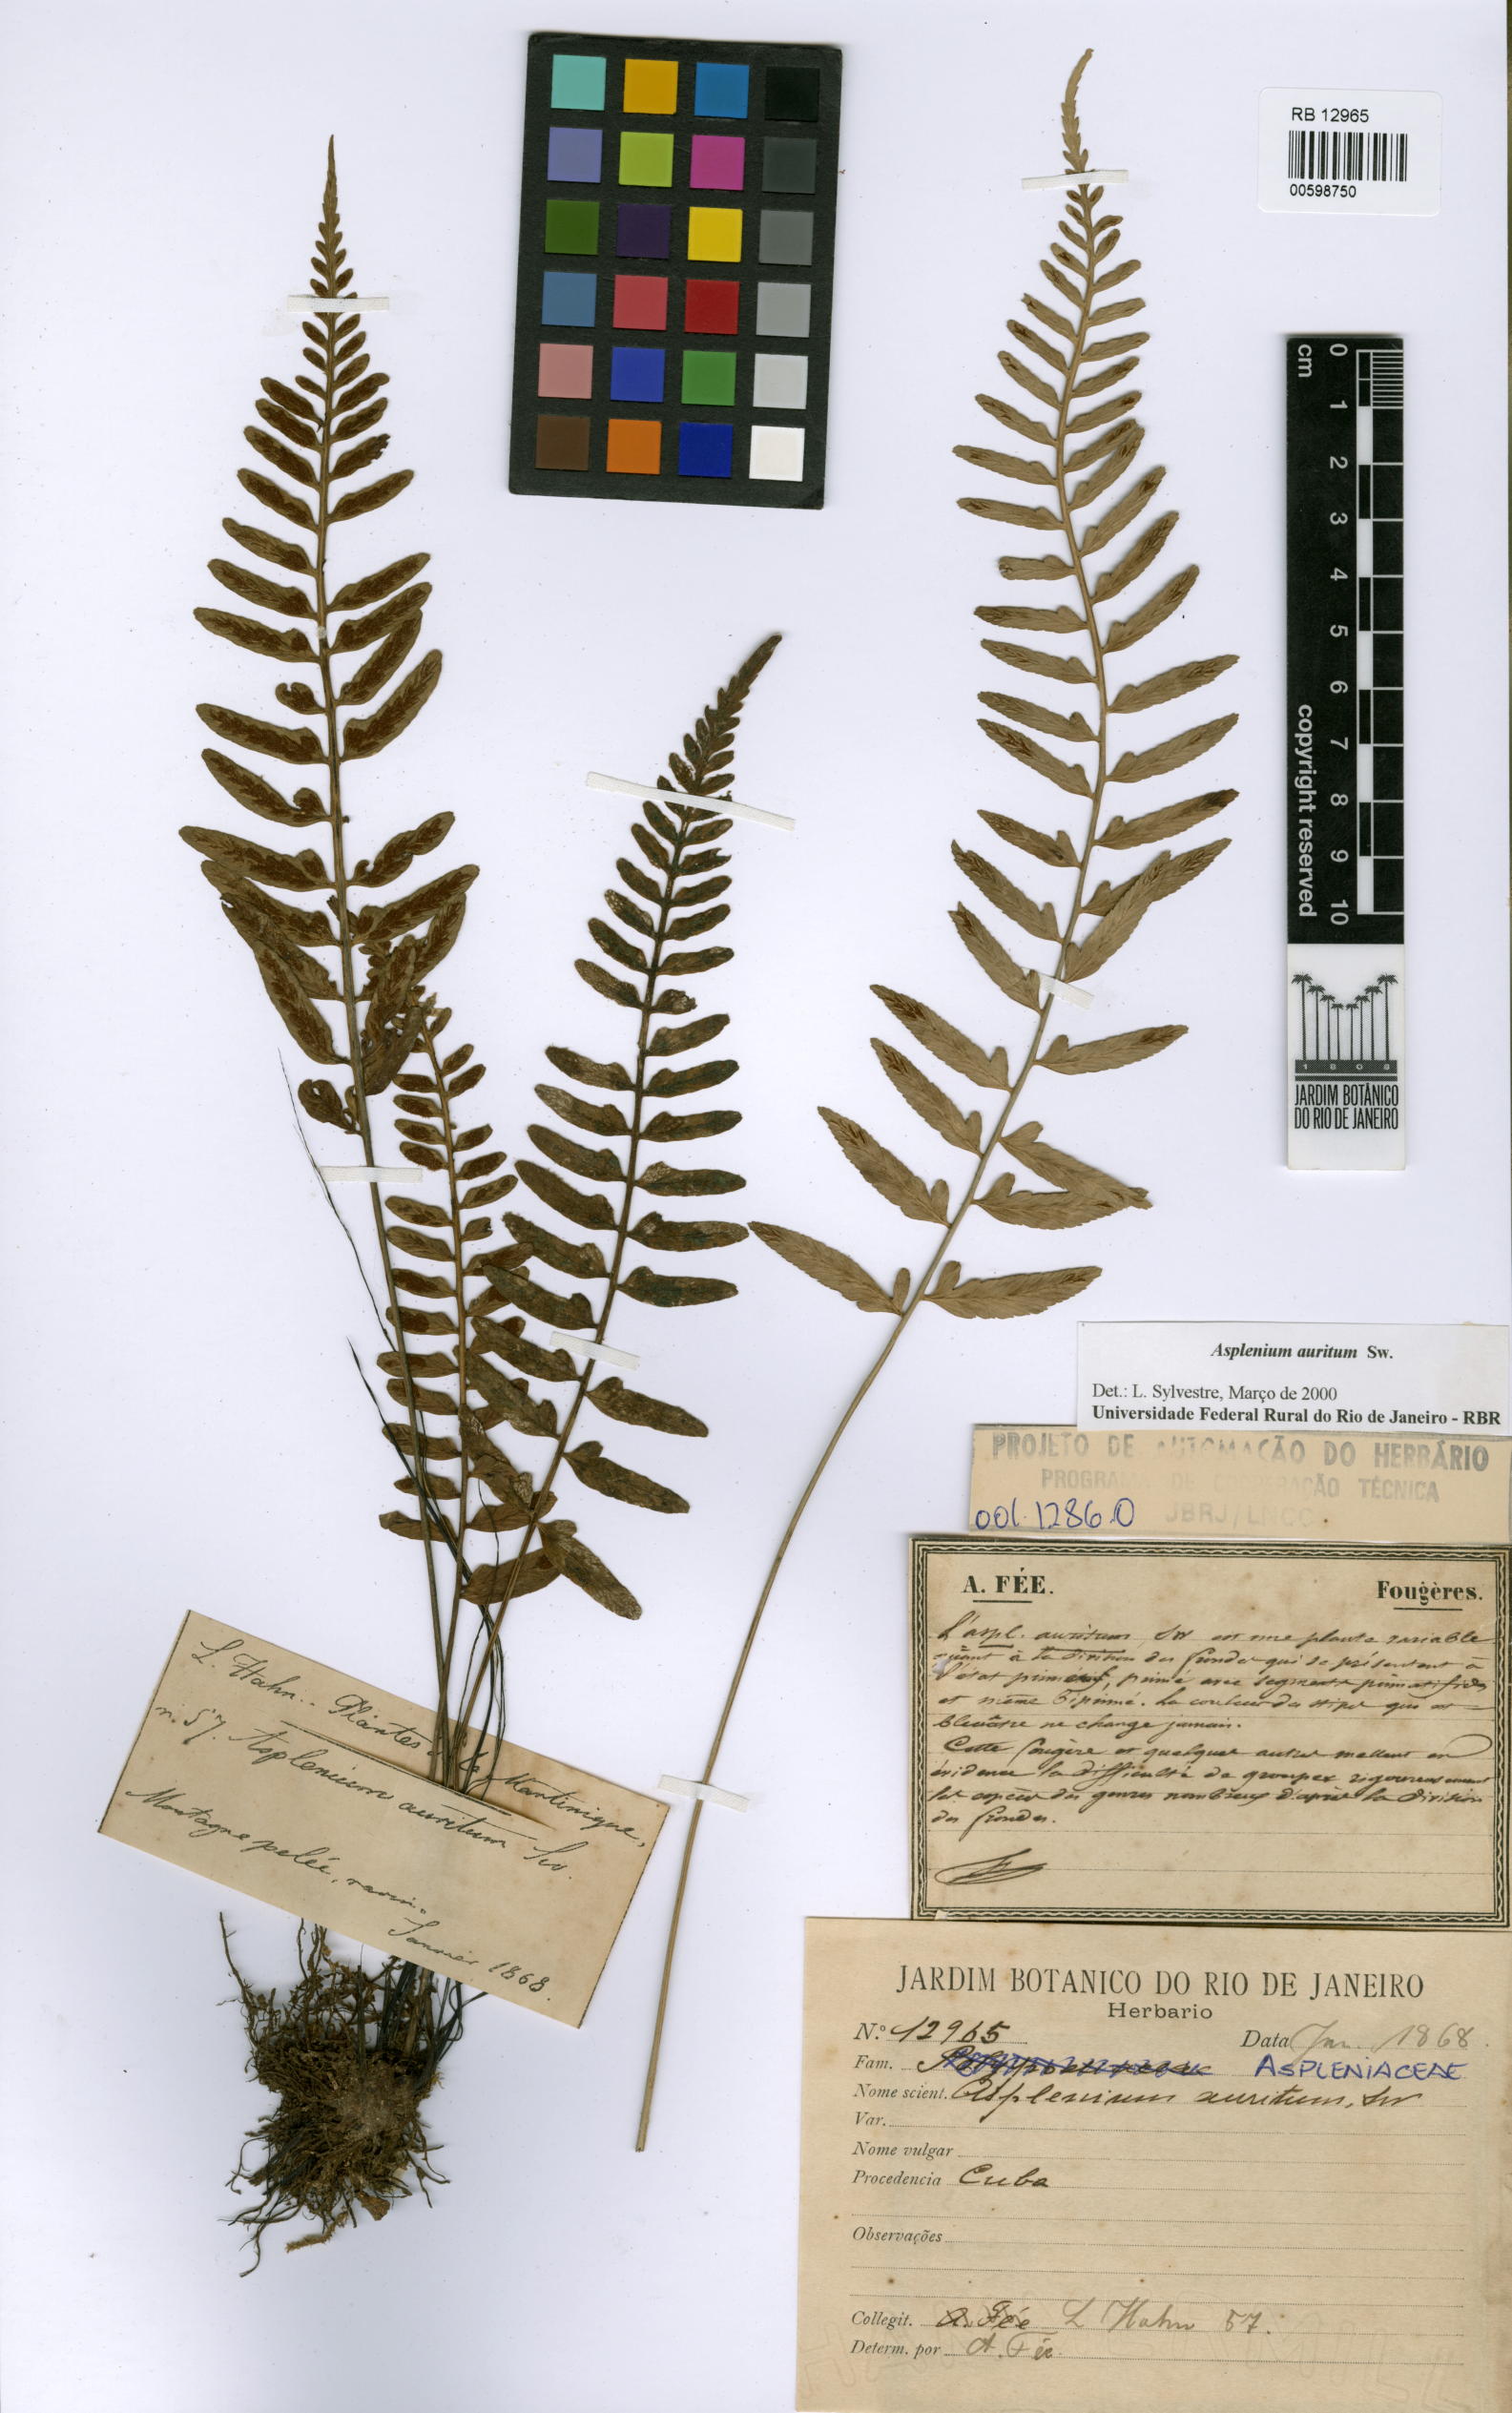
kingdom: Plantae
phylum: Tracheophyta
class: Polypodiopsida
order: Polypodiales
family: Aspleniaceae
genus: Asplenium
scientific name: Asplenium auritum
